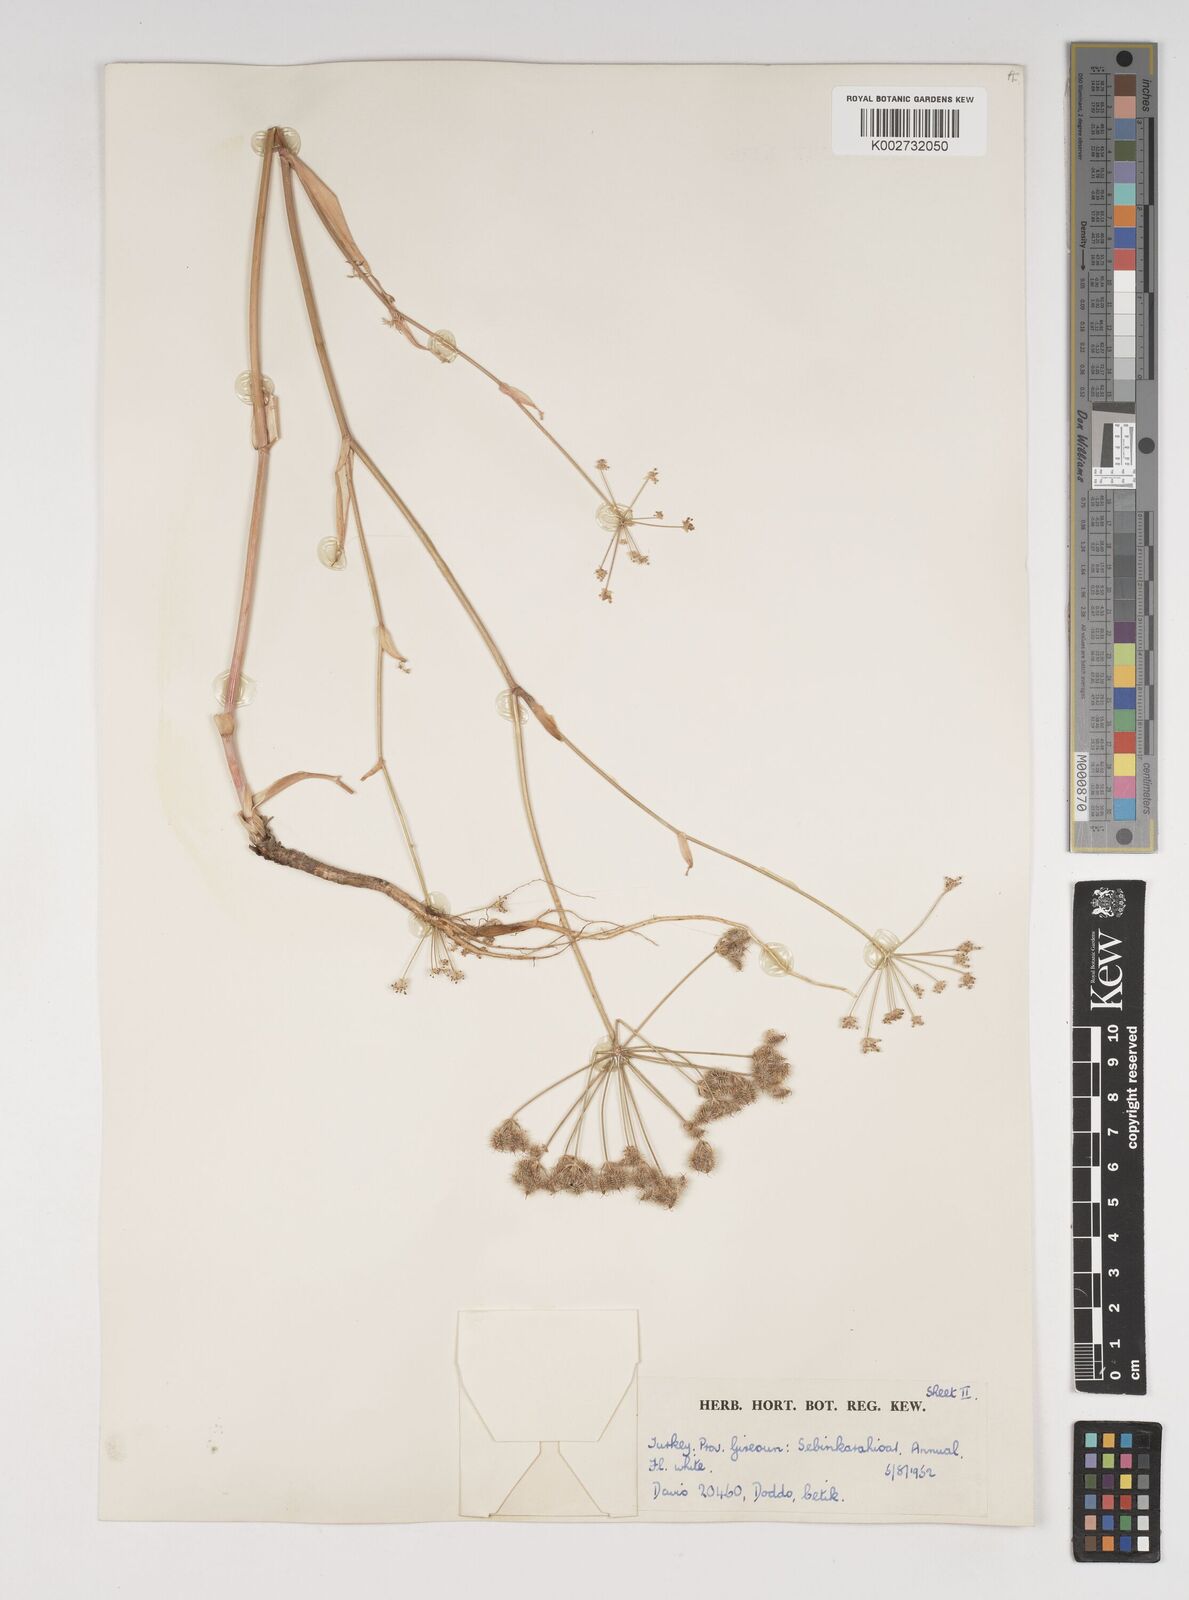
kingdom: Plantae
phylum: Tracheophyta
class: Magnoliopsida
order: Apiales
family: Apiaceae
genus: Astrodaucus
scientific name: Astrodaucus
